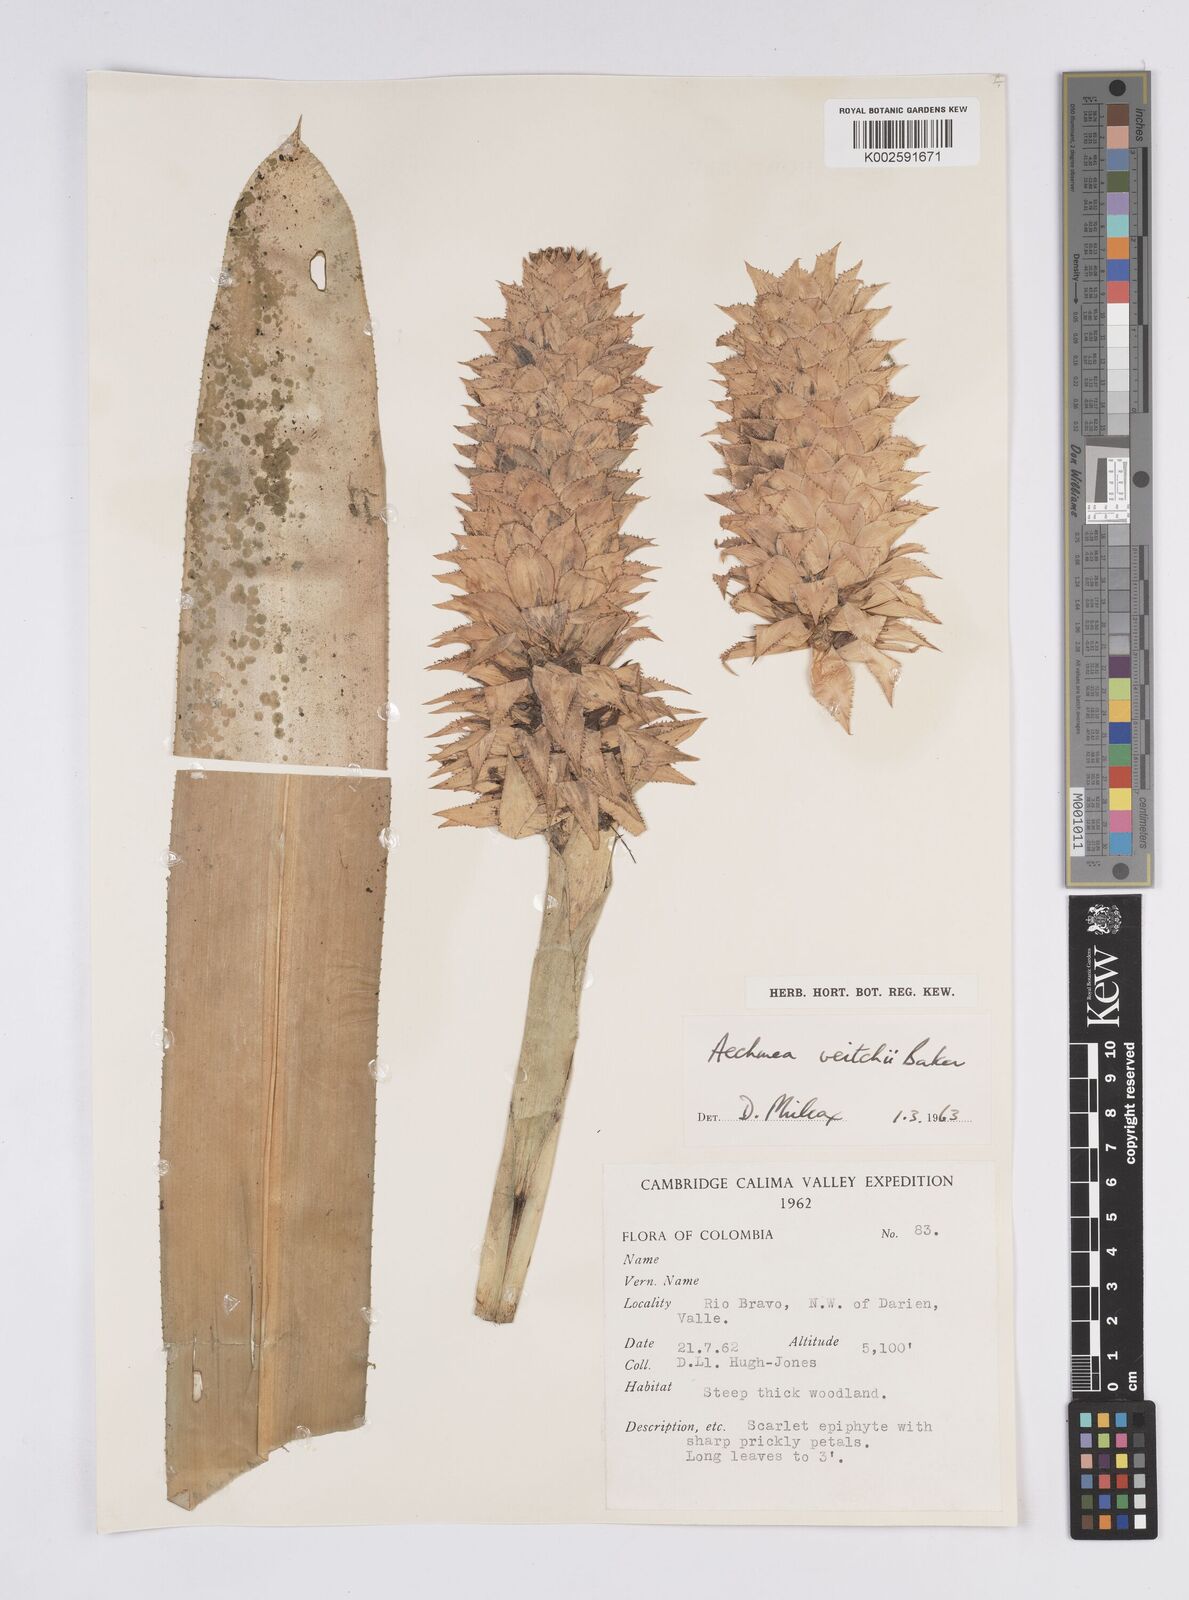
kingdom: Plantae
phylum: Tracheophyta
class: Liliopsida
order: Poales
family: Bromeliaceae
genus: Ronnbergia
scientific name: Ronnbergia veitchii
